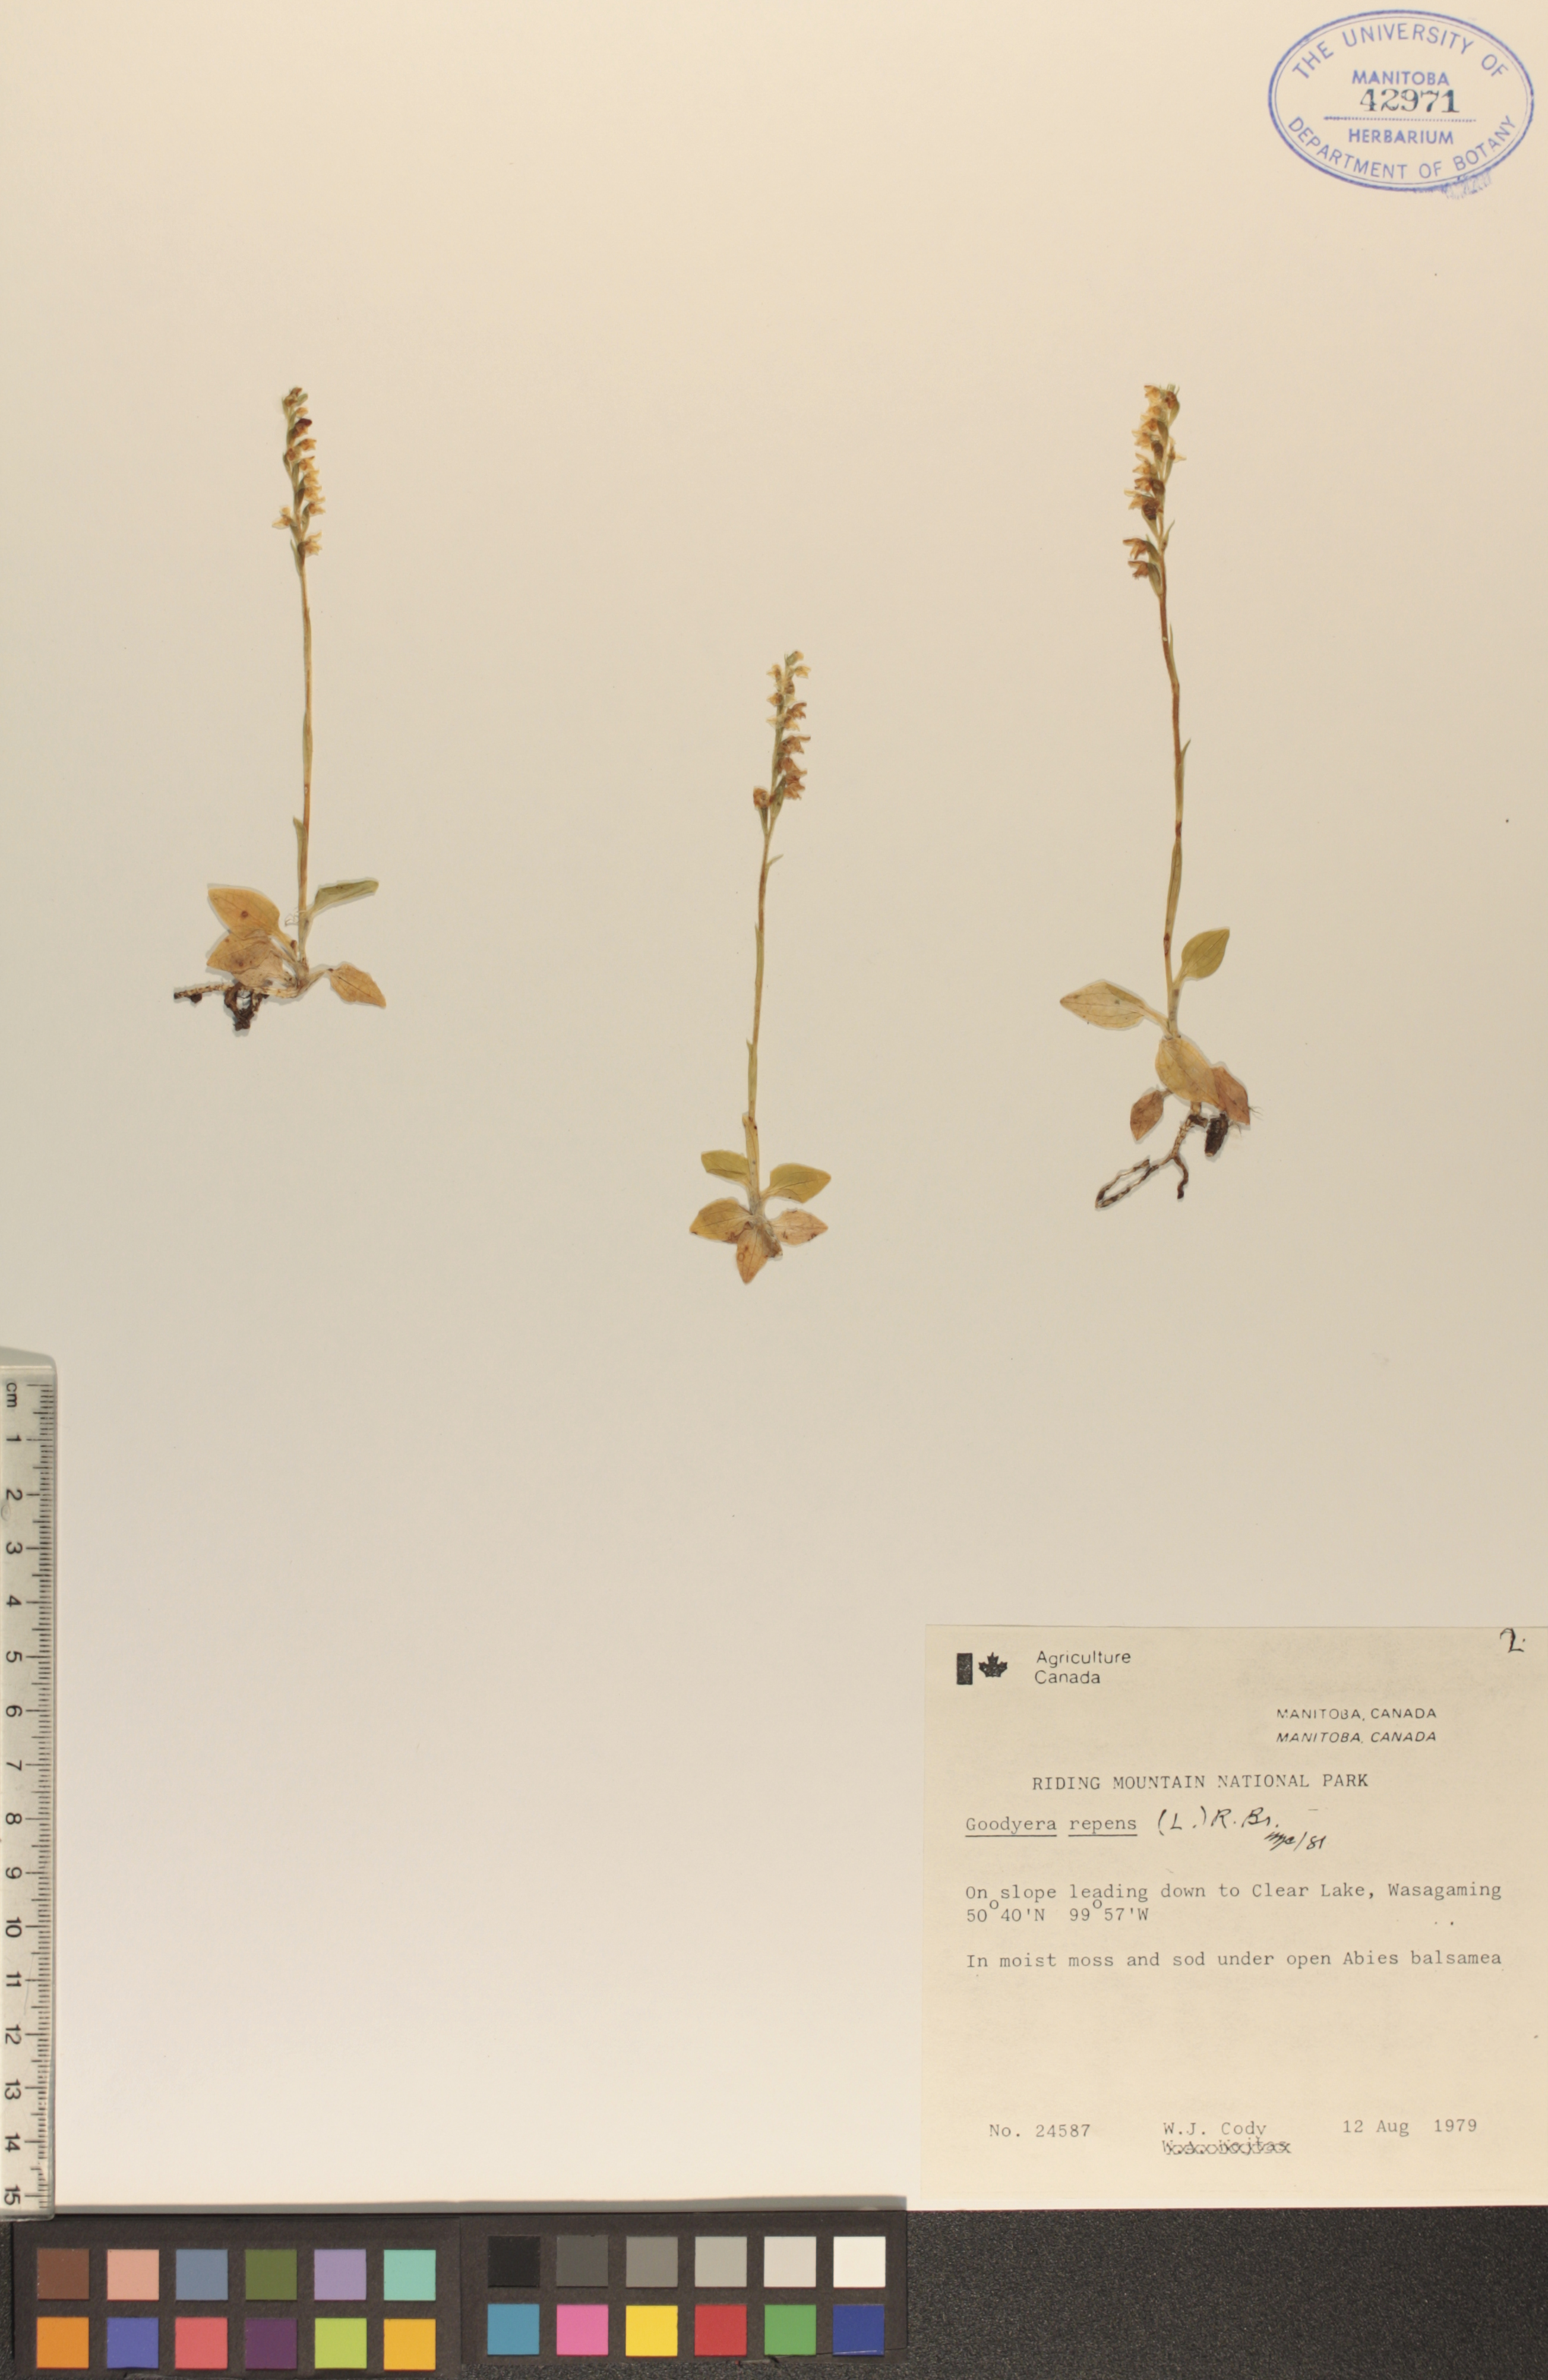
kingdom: Plantae
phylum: Tracheophyta
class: Liliopsida
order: Asparagales
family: Orchidaceae
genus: Goodyera
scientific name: Goodyera repens
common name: Creeping lady's-tresses
